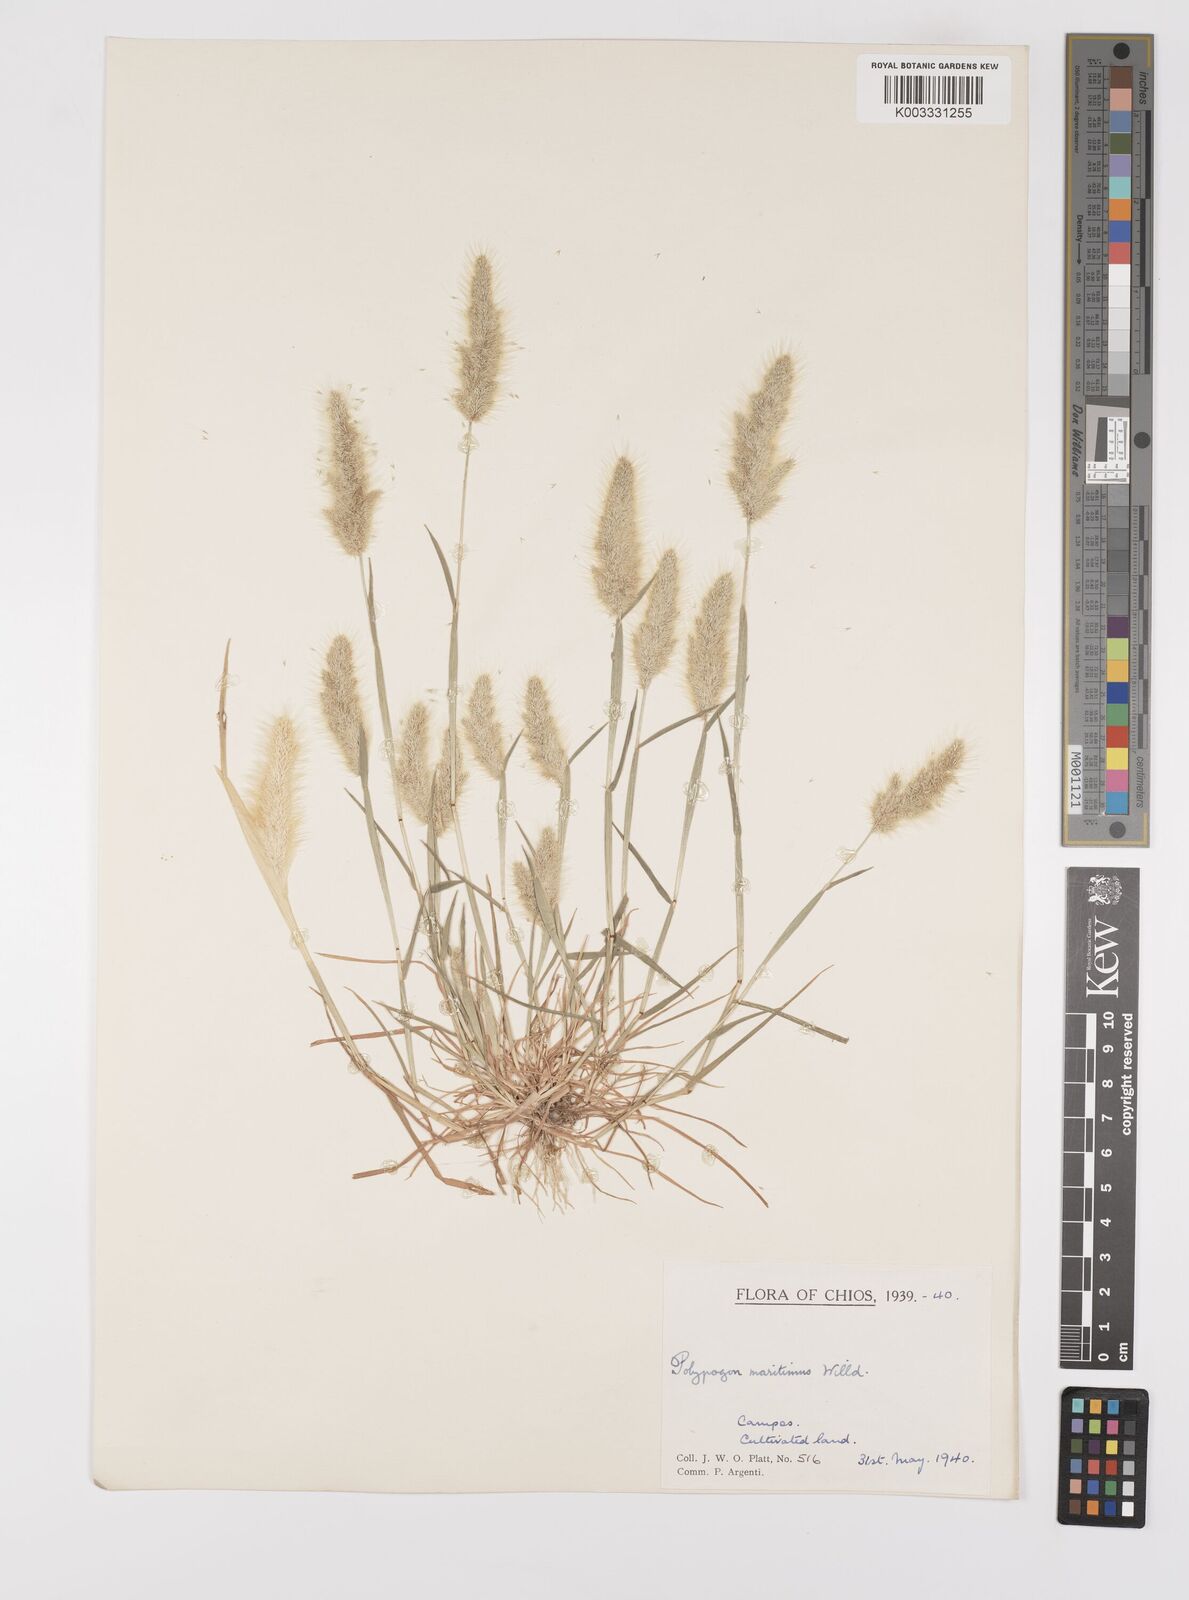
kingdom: Plantae
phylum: Tracheophyta
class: Liliopsida
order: Poales
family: Poaceae
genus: Polypogon
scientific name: Polypogon maritimus
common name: Mediterranean rabbitsfoot grass
